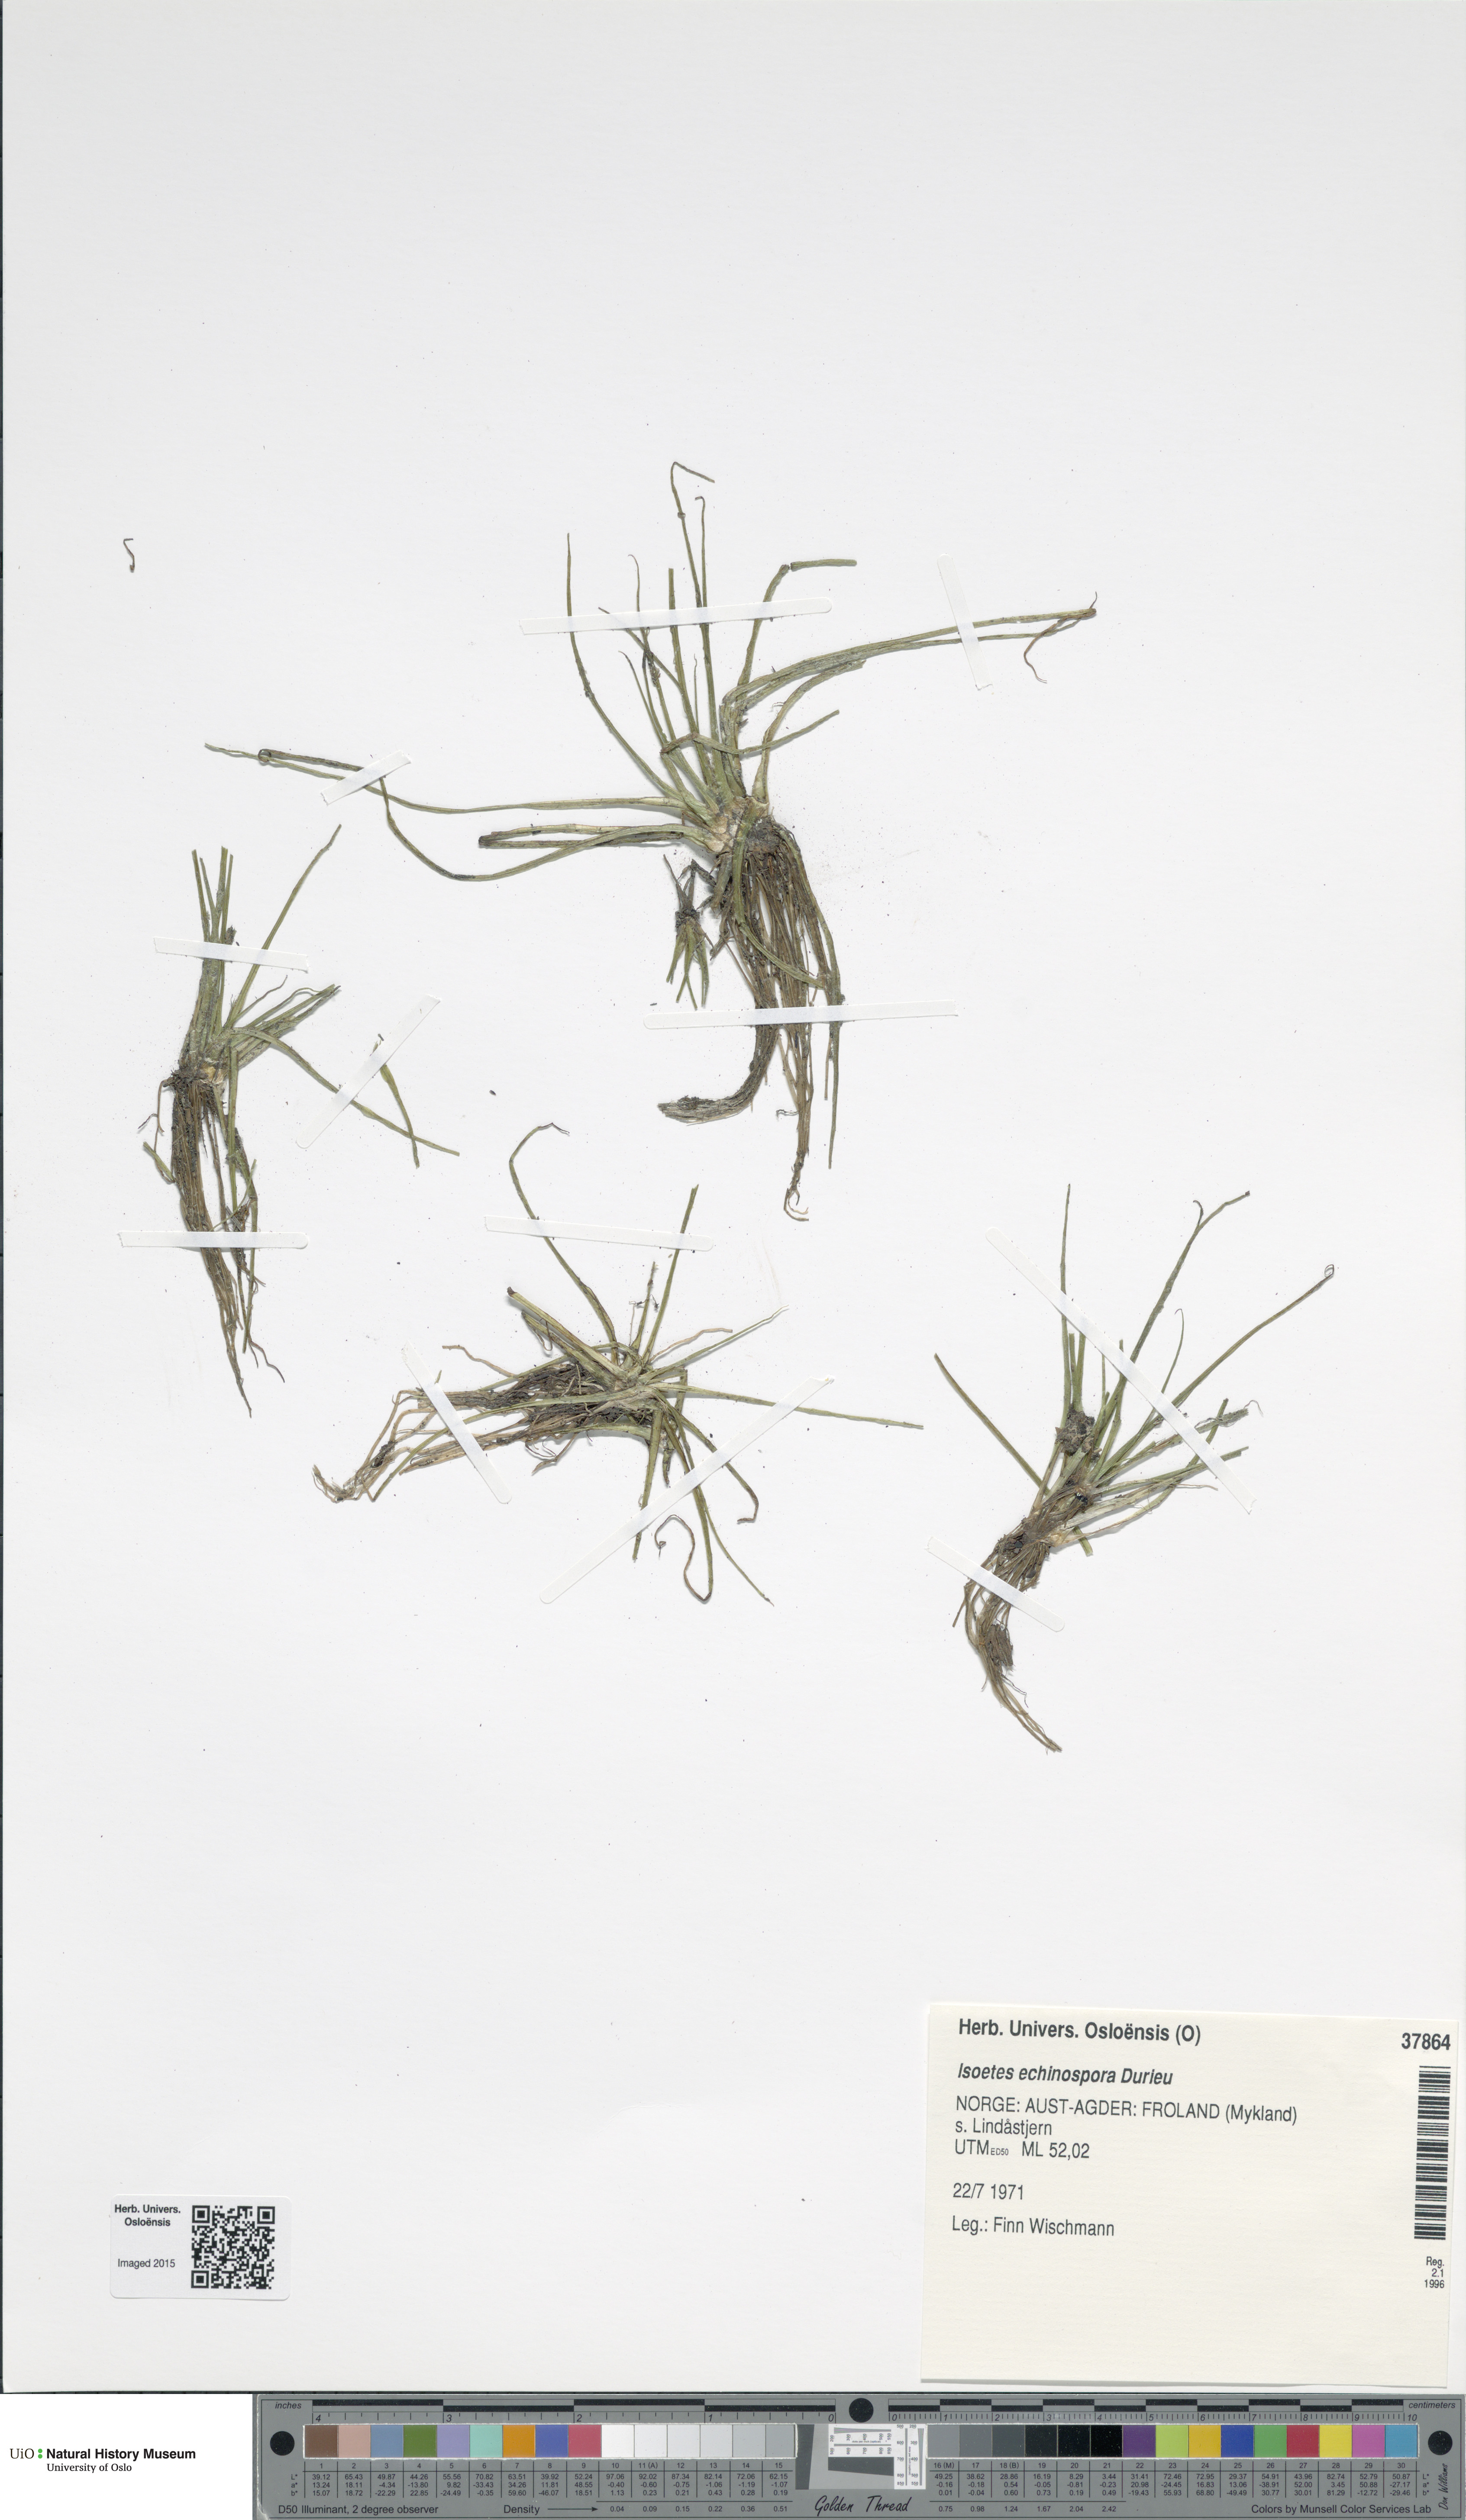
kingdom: Plantae
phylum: Tracheophyta
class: Lycopodiopsida
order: Isoetales
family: Isoetaceae
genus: Isoetes
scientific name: Isoetes echinospora
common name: Spring quillwort
